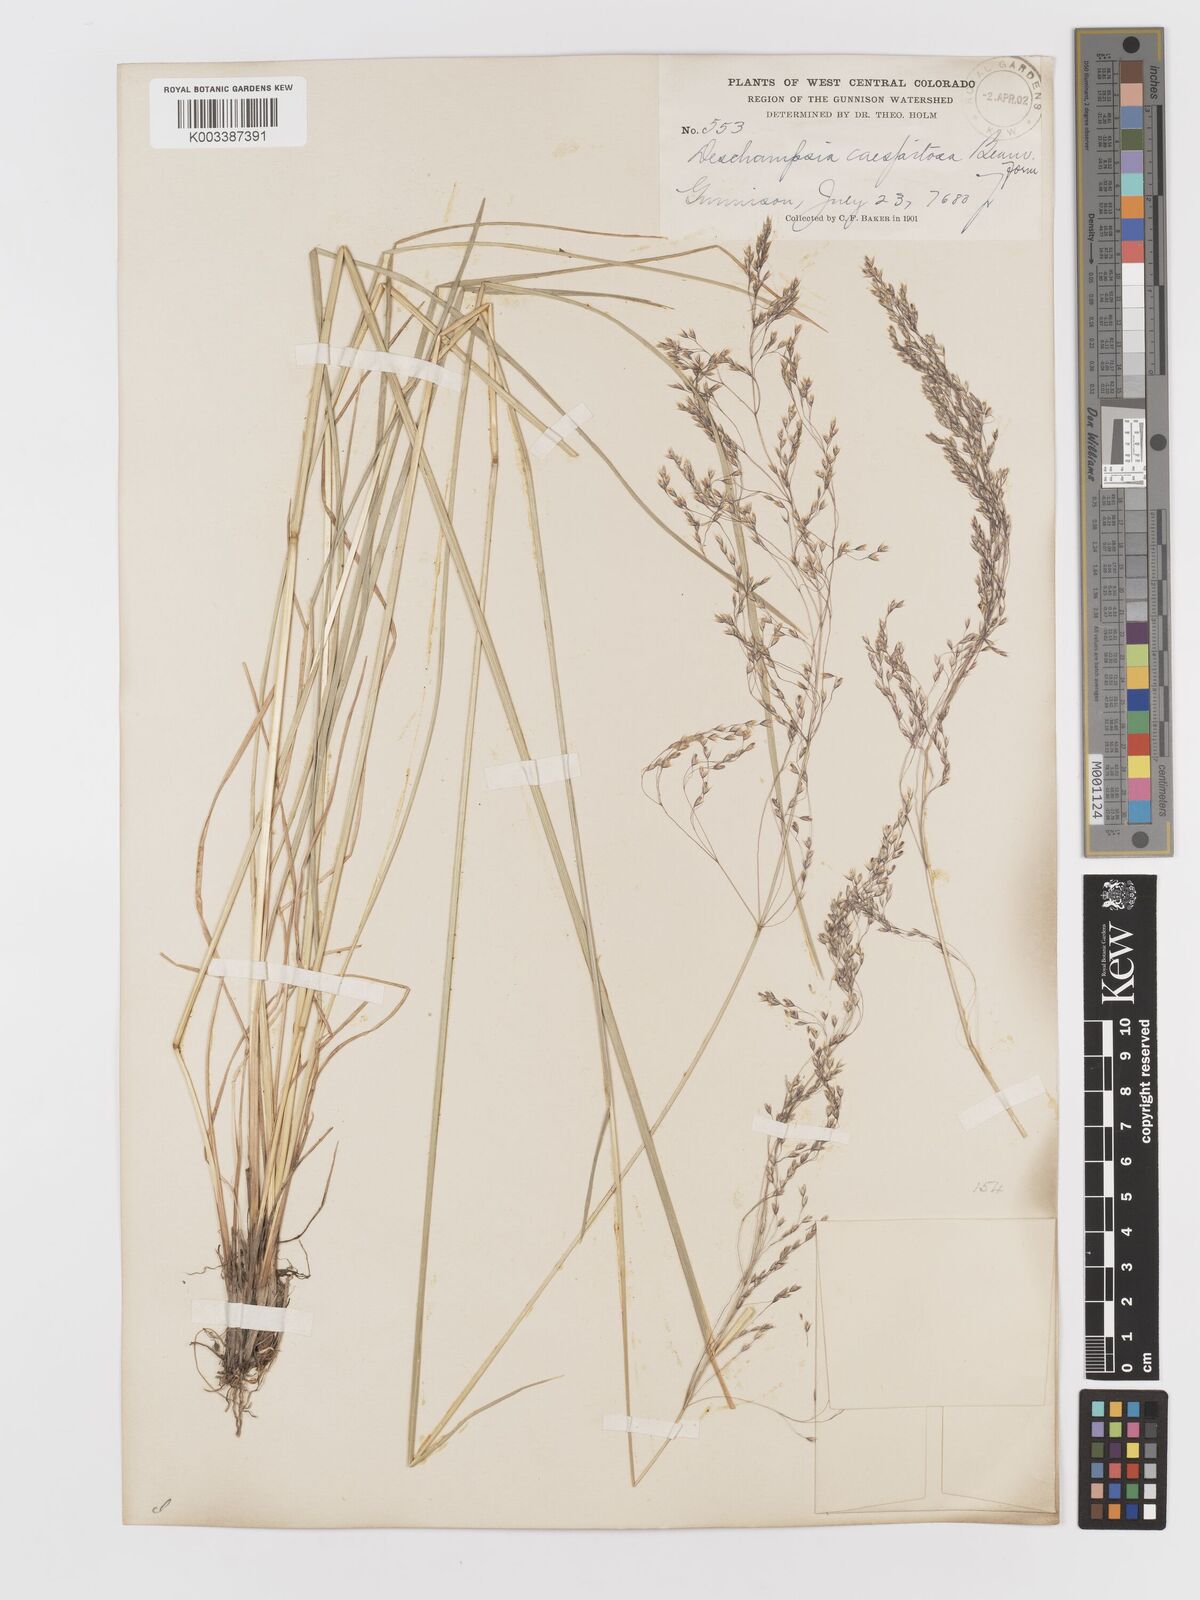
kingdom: Plantae
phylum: Tracheophyta
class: Liliopsida
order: Poales
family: Poaceae
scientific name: Poaceae
